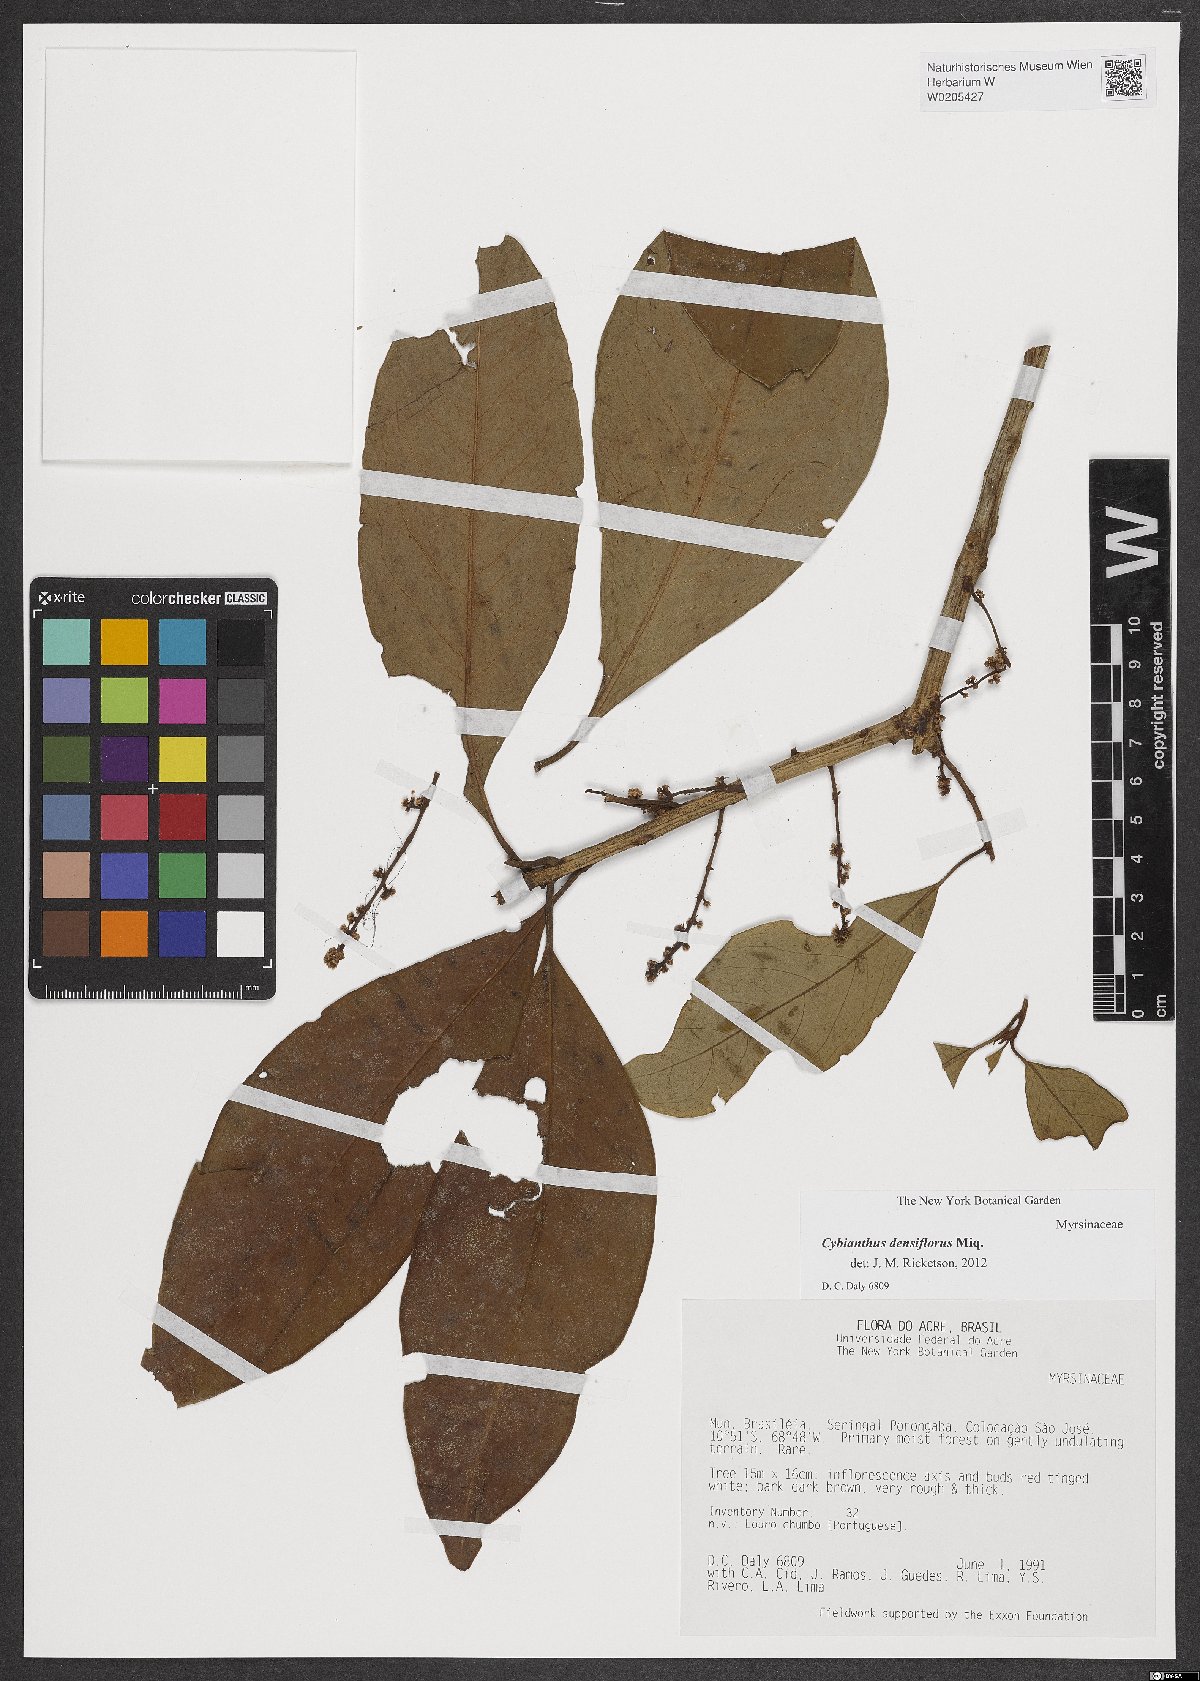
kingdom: Plantae
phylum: Tracheophyta
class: Magnoliopsida
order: Ericales
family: Primulaceae
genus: Cybianthus
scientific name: Cybianthus densiflorus
